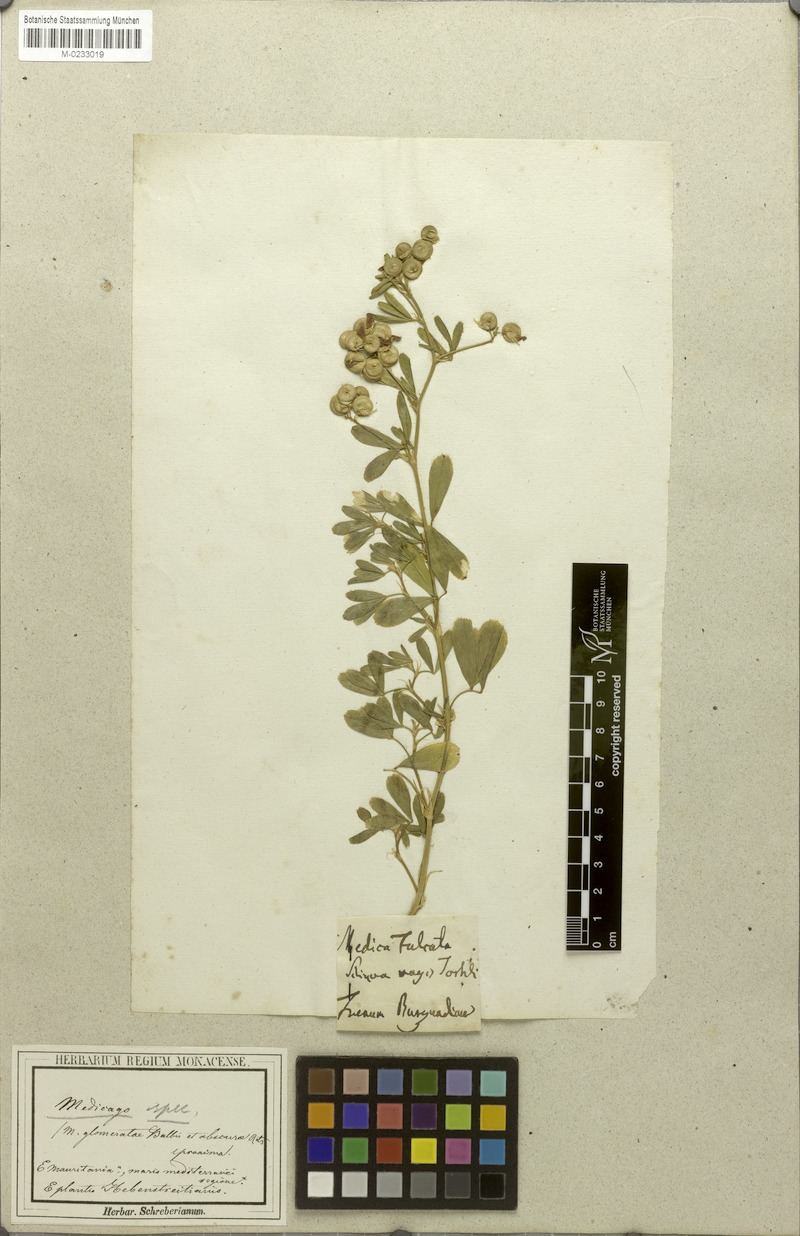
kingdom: Plantae
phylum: Tracheophyta
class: Magnoliopsida
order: Fabales
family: Fabaceae
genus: Medicago
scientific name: Medicago
